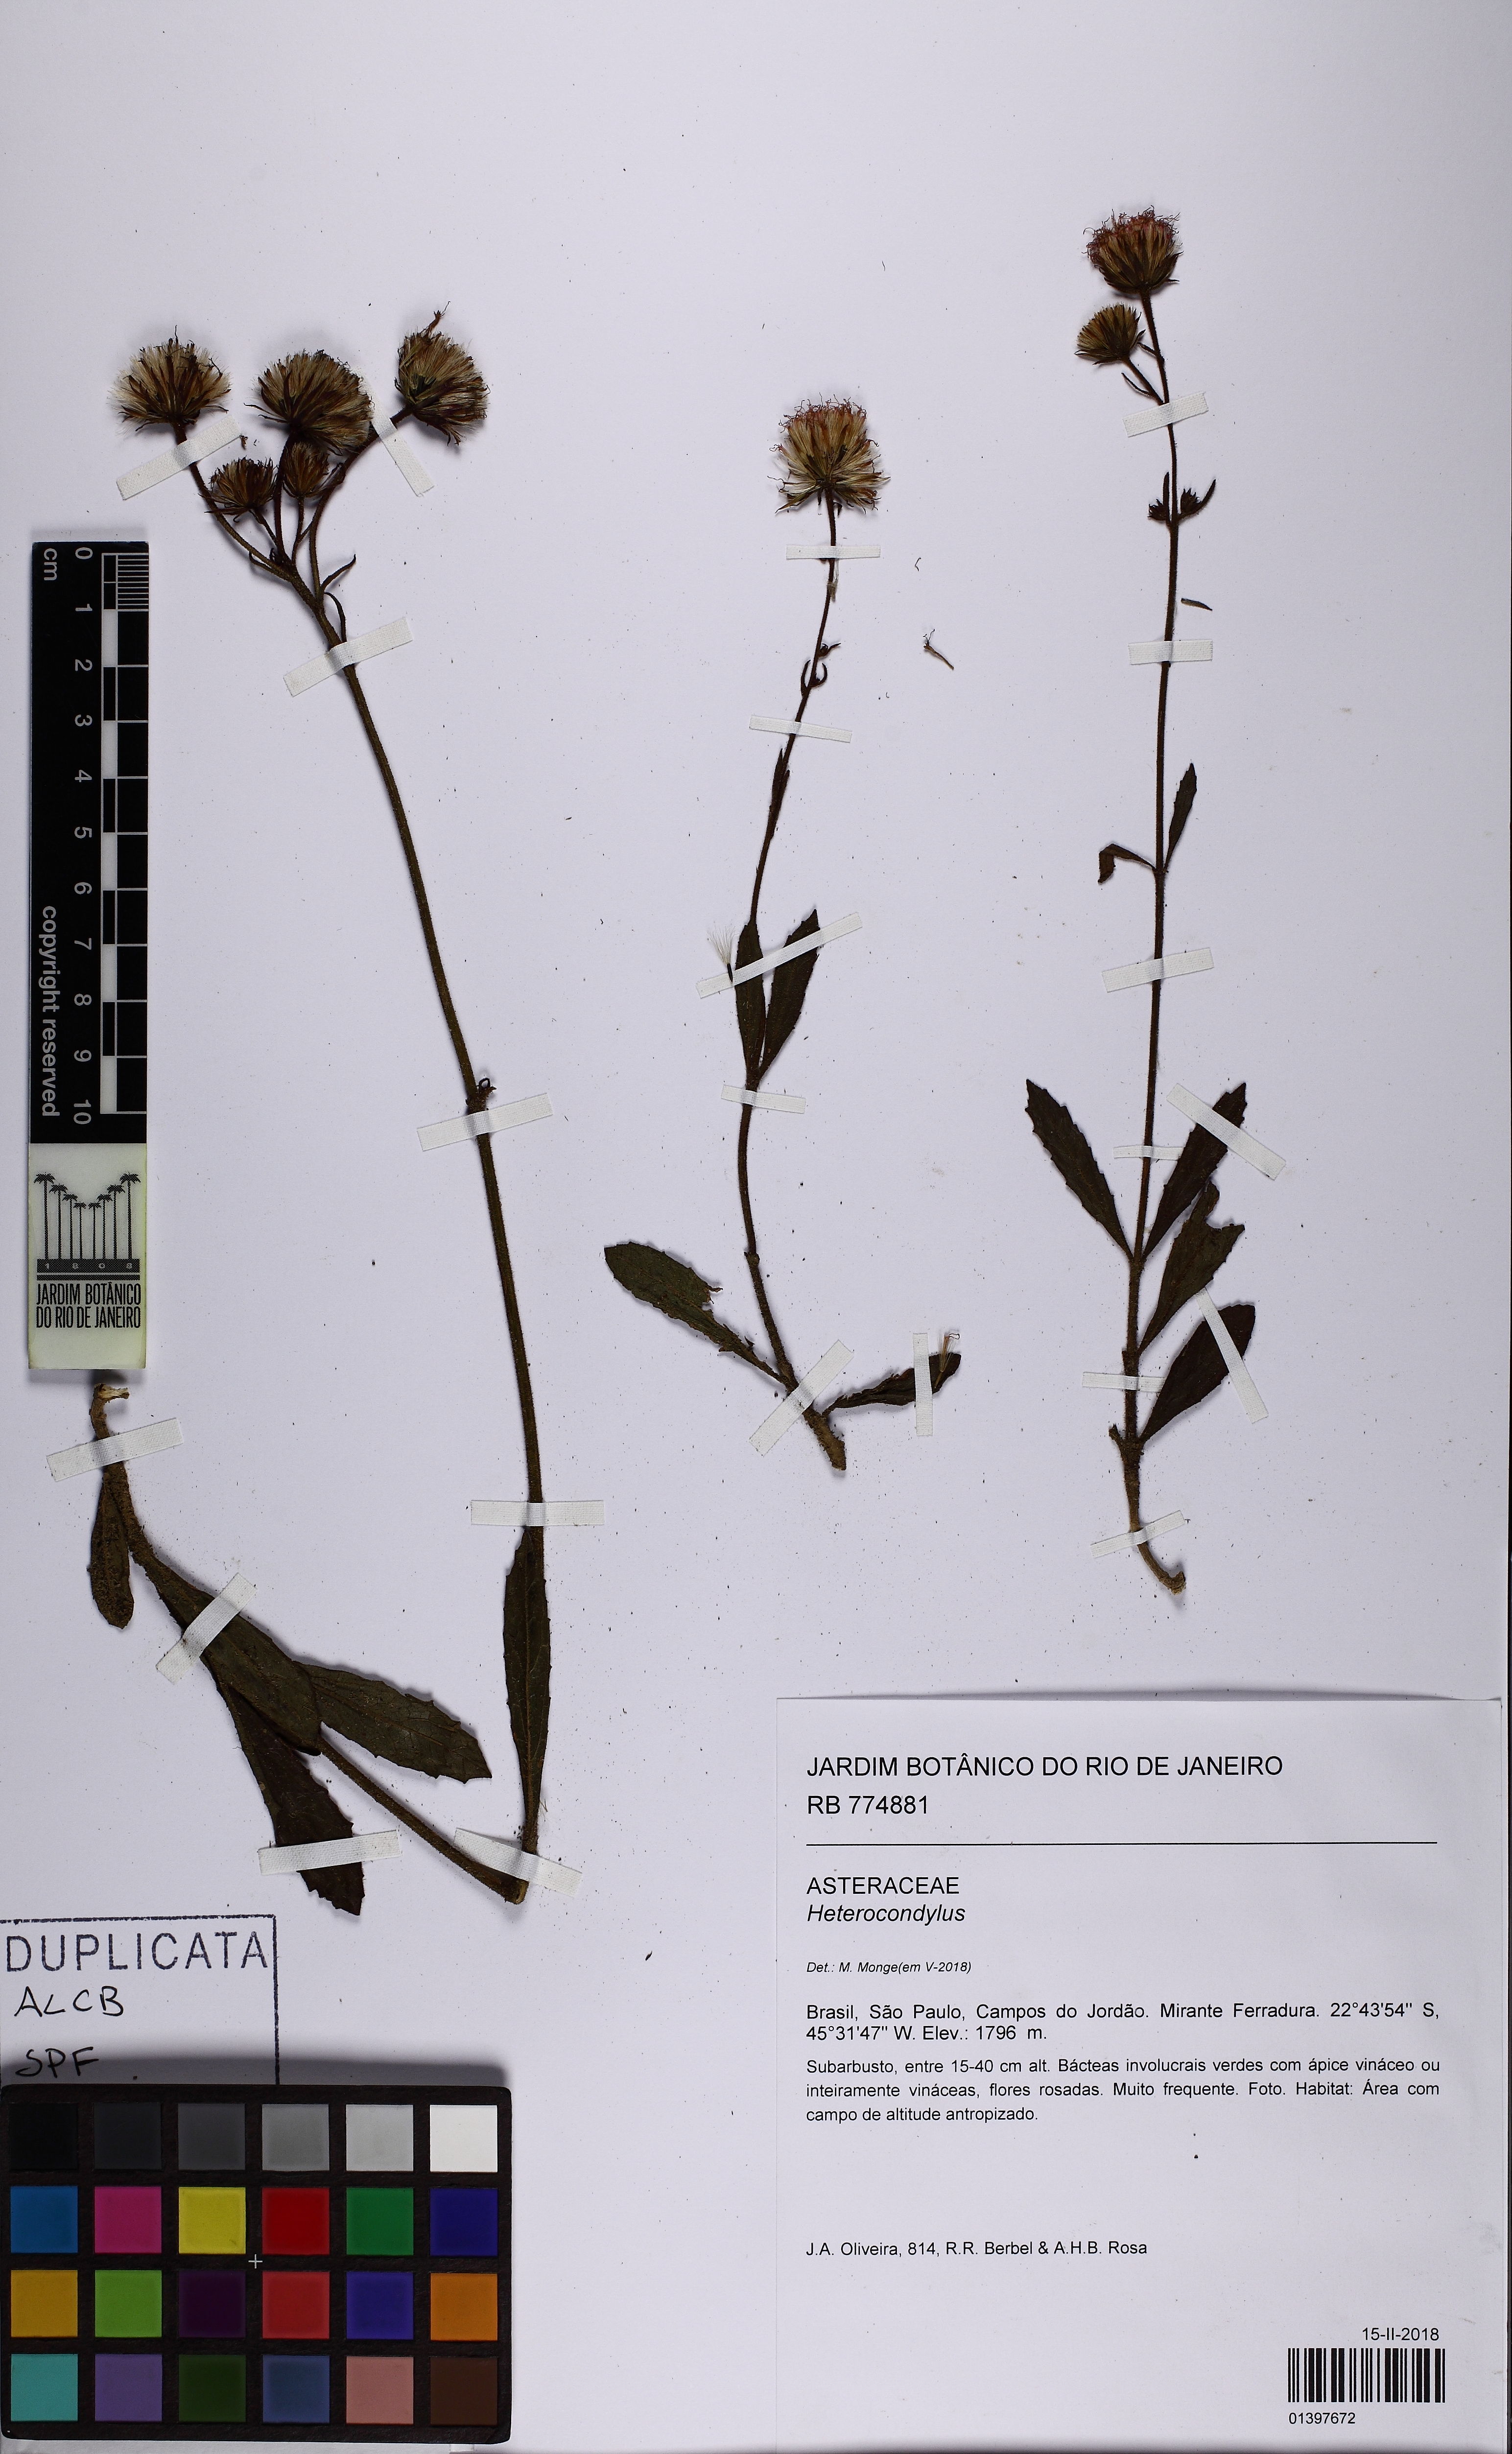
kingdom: Plantae
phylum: Tracheophyta
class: Magnoliopsida
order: Asterales
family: Asteraceae
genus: Heterocondylus
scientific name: Heterocondylus
